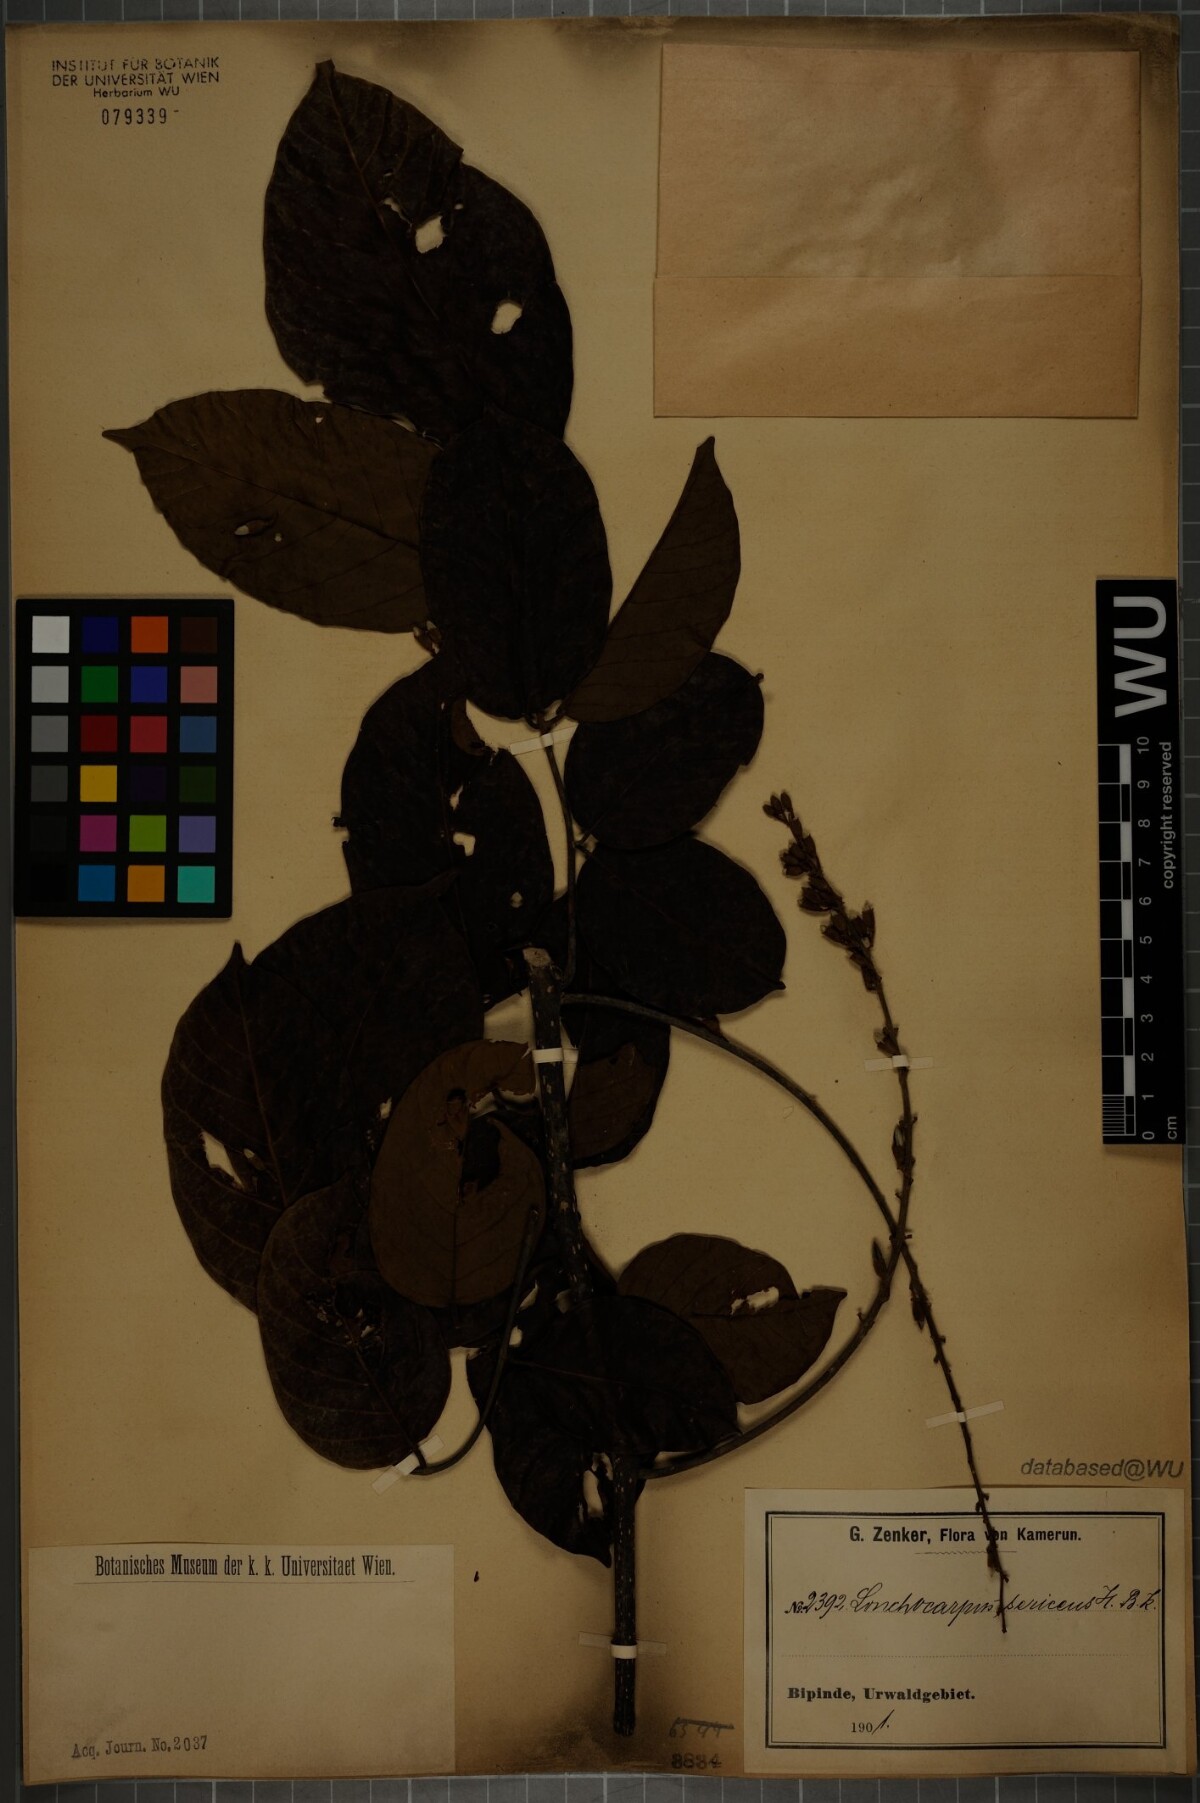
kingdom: Plantae
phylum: Tracheophyta
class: Magnoliopsida
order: Fabales
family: Fabaceae
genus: Lonchocarpus
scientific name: Lonchocarpus sericeus
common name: Savonette
